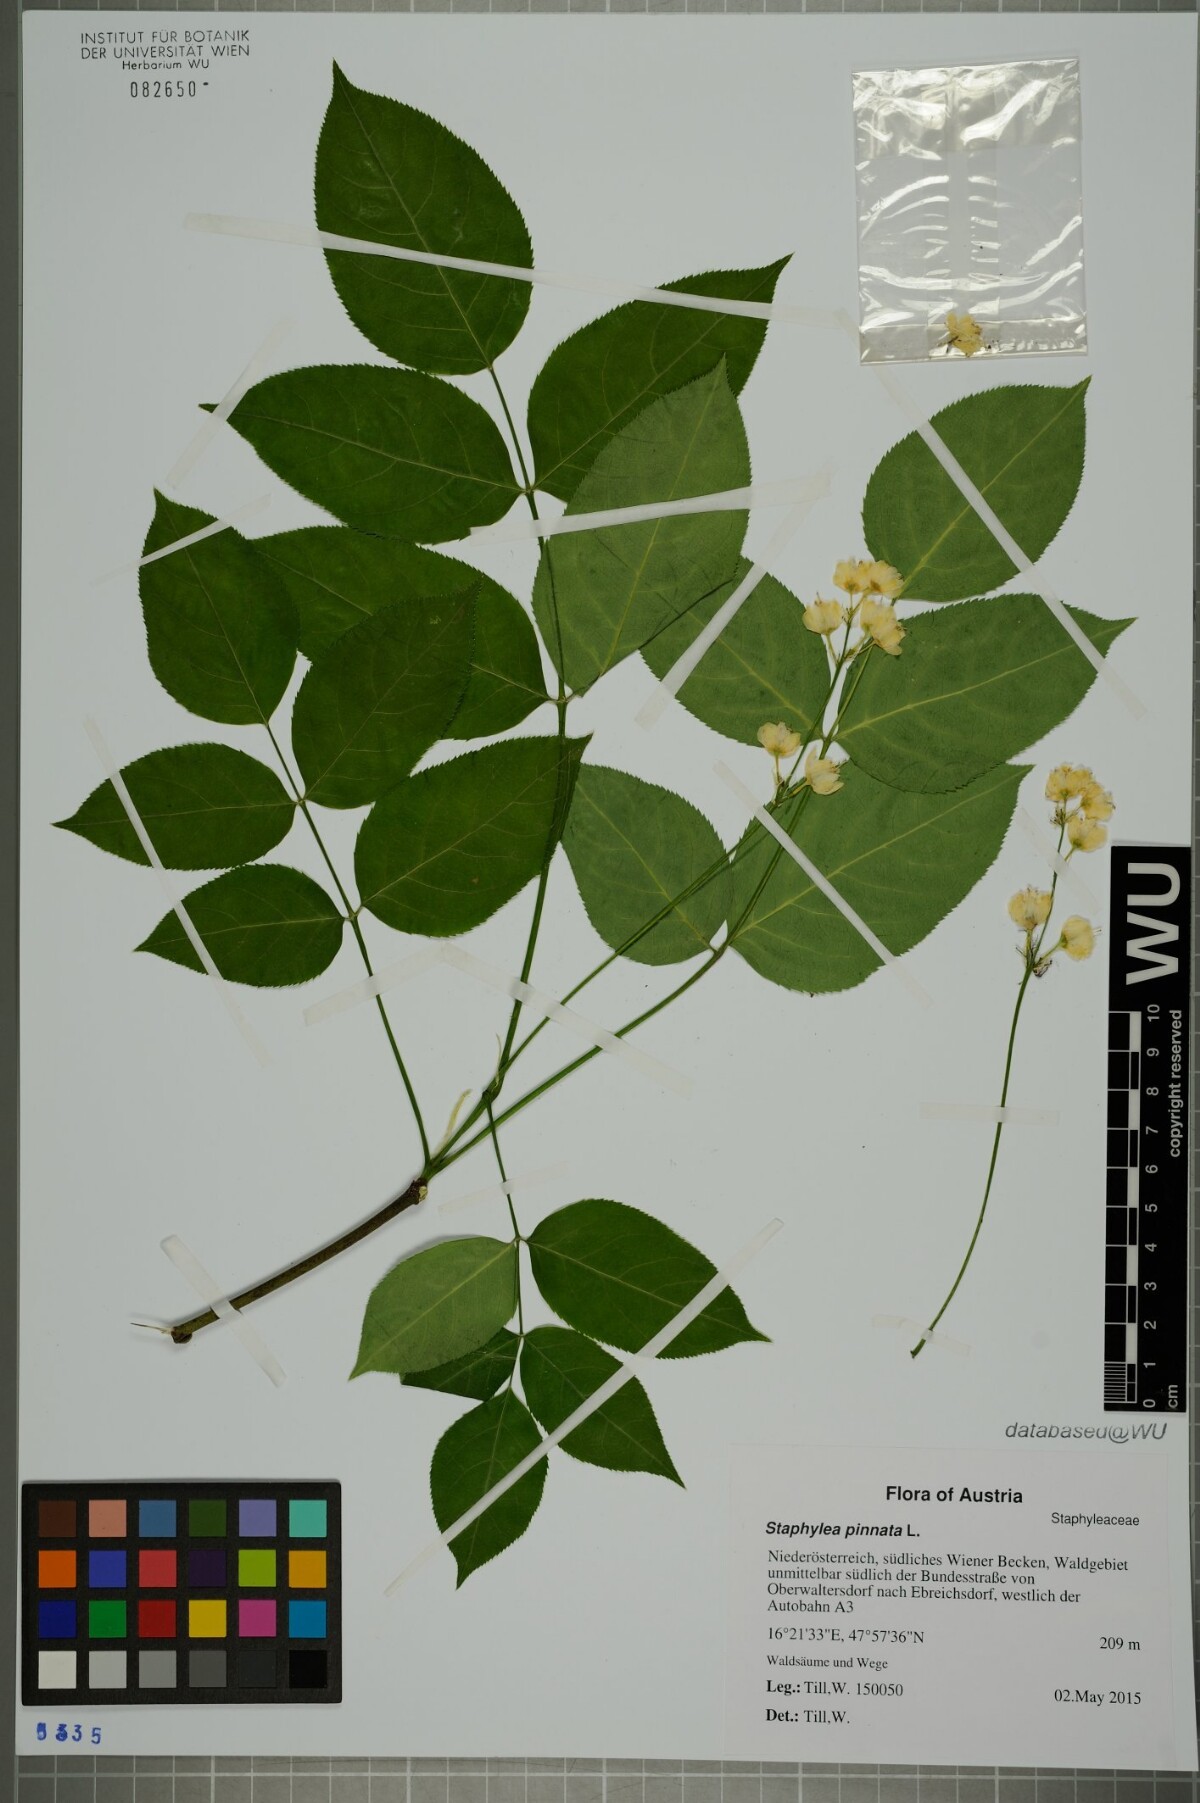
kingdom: Plantae
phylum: Tracheophyta
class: Magnoliopsida
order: Crossosomatales
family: Staphyleaceae
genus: Staphylea
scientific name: Staphylea pinnata
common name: Bladdernut
